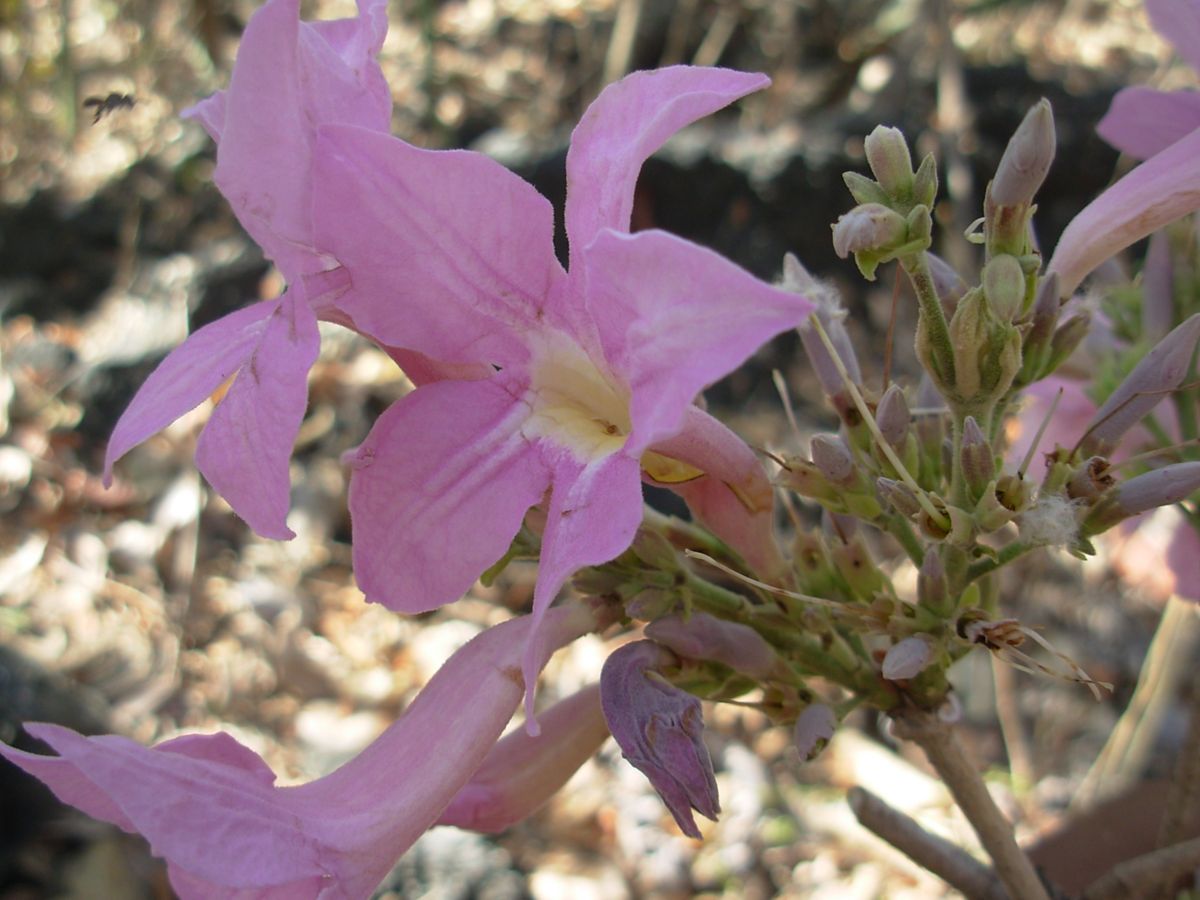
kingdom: Plantae
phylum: Tracheophyta
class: Magnoliopsida
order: Lamiales
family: Bignoniaceae
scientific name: Bignoniaceae
